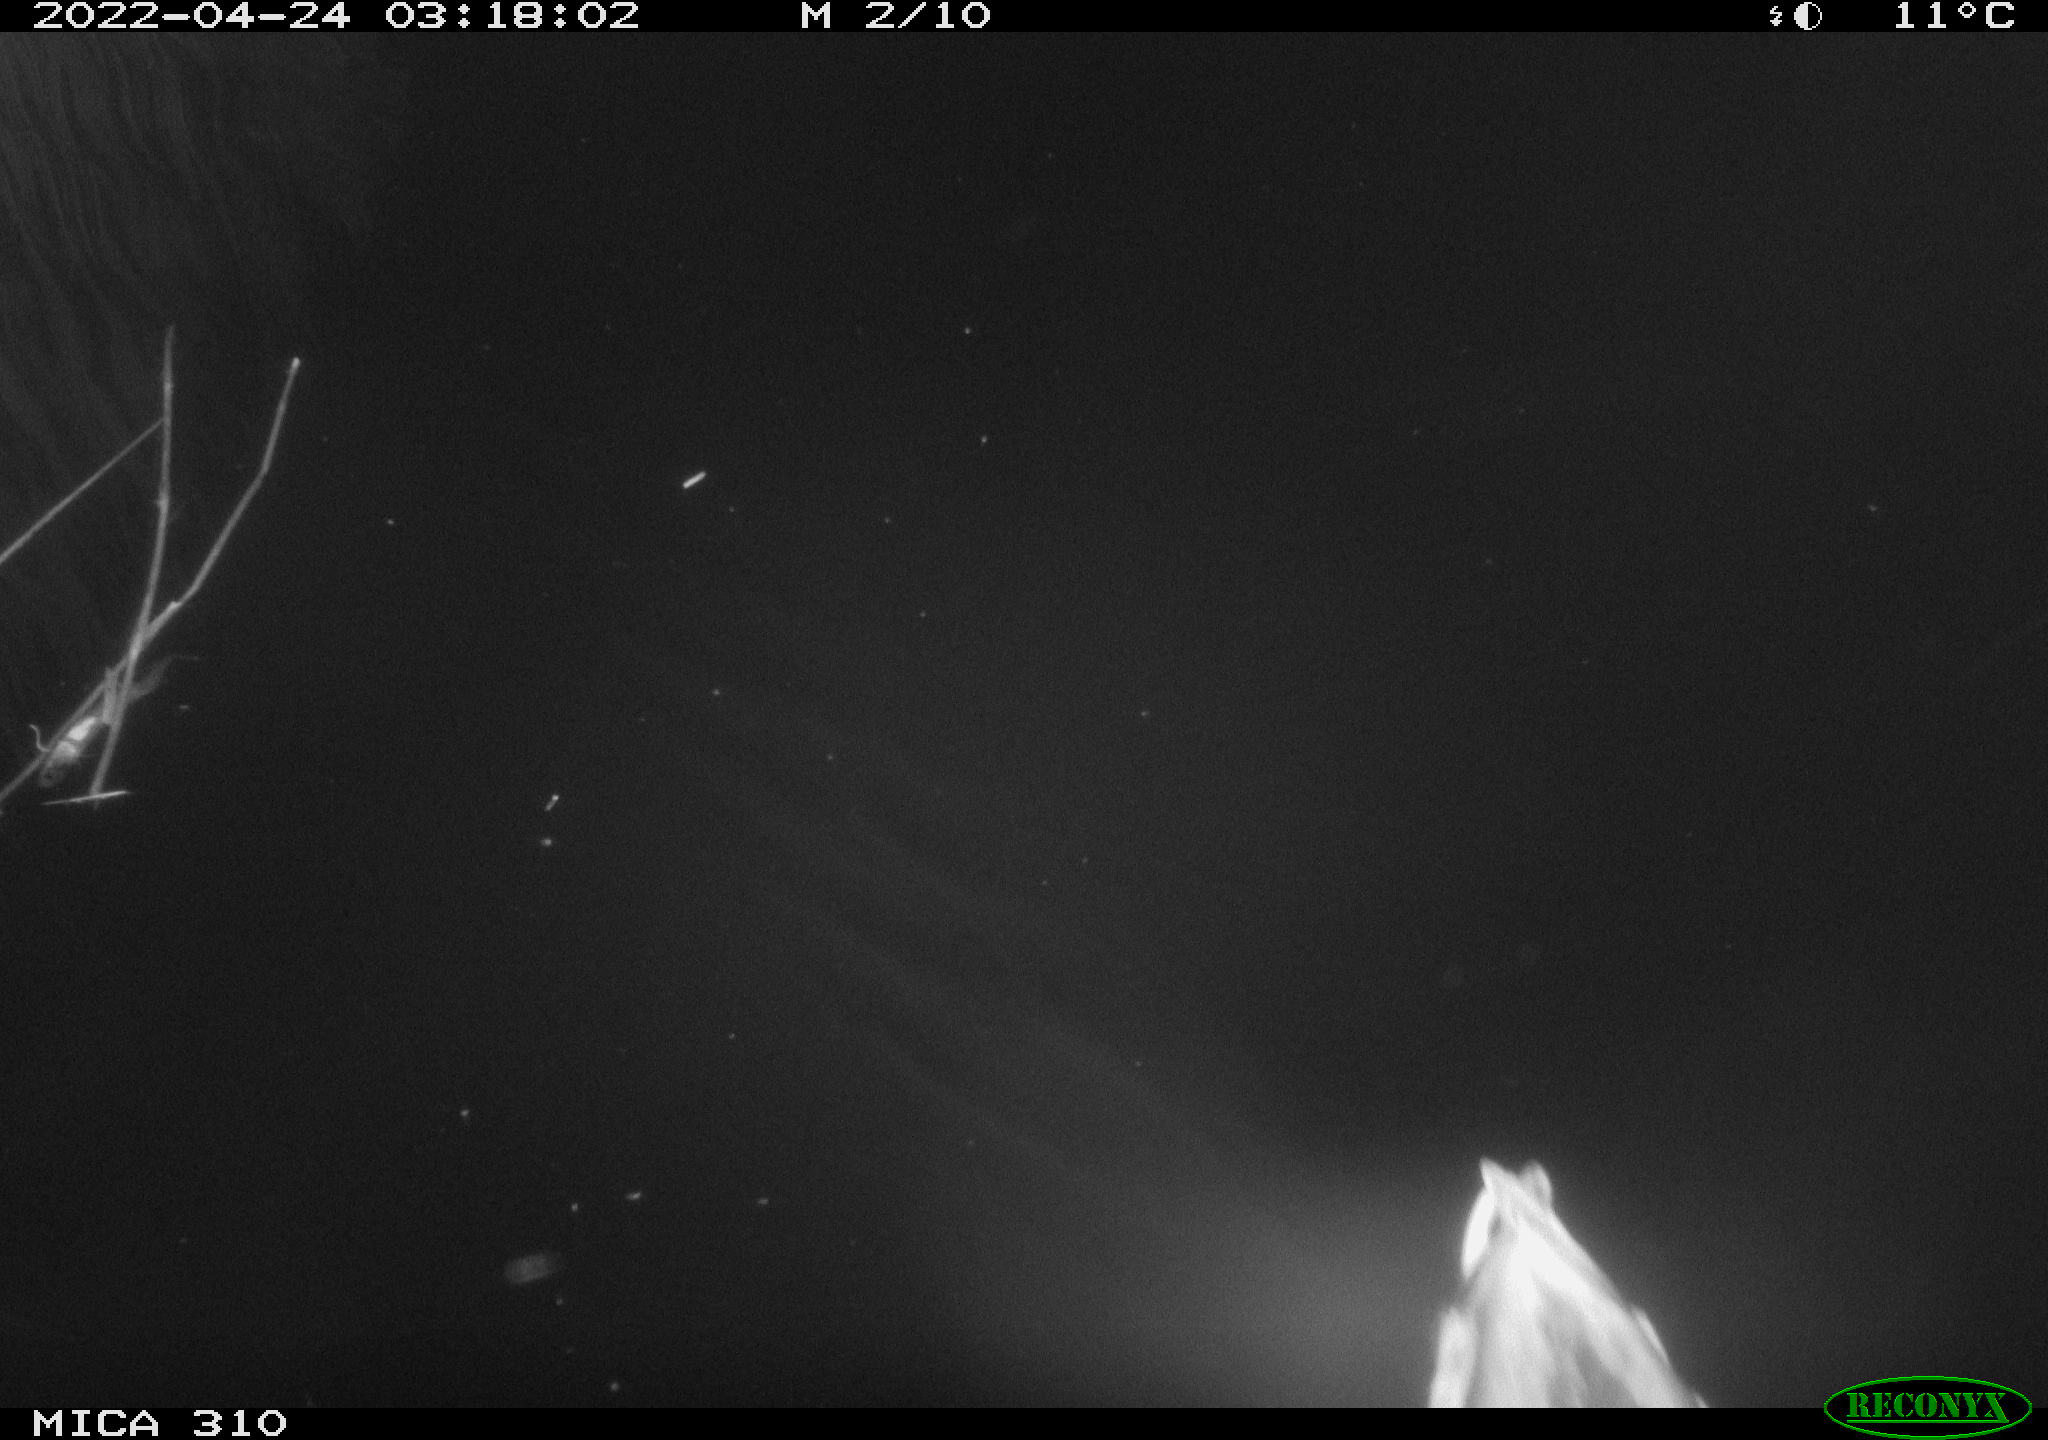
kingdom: Animalia
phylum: Chordata
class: Aves
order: Anseriformes
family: Anatidae
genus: Anas
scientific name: Anas platyrhynchos
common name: Mallard
